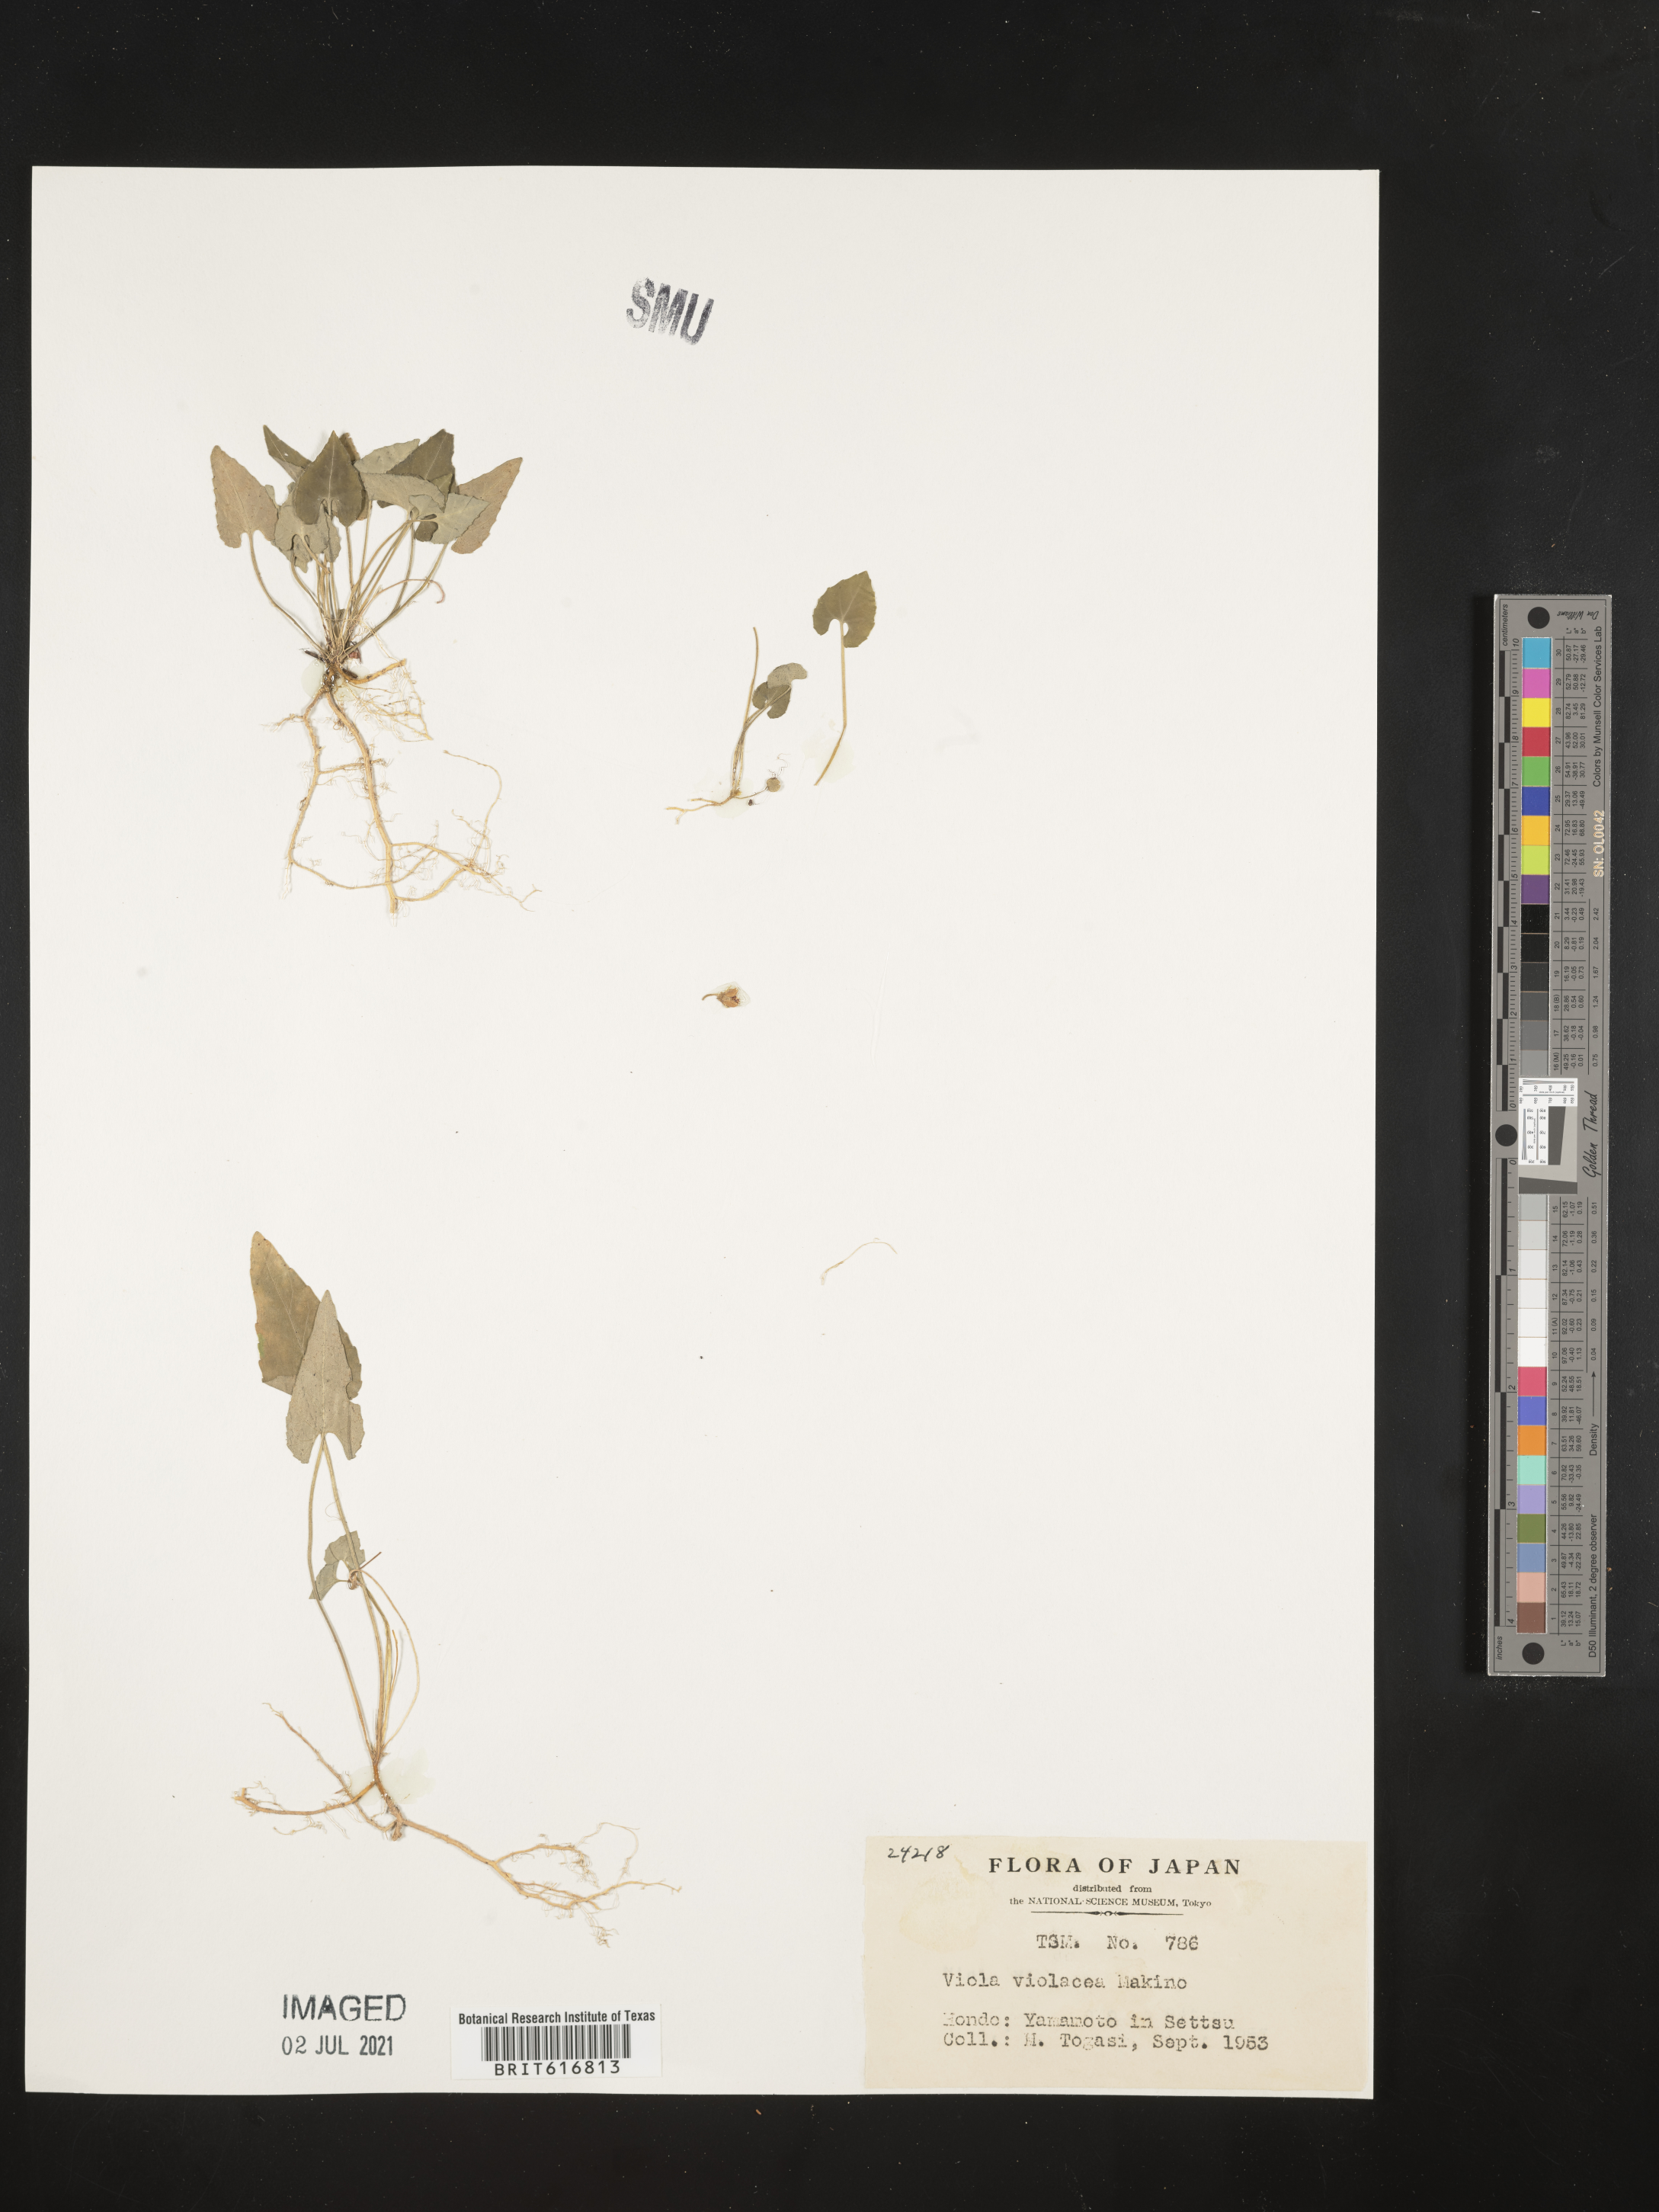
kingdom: Plantae
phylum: Tracheophyta
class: Magnoliopsida
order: Malpighiales
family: Violaceae
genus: Viola
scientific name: Viola violacea
